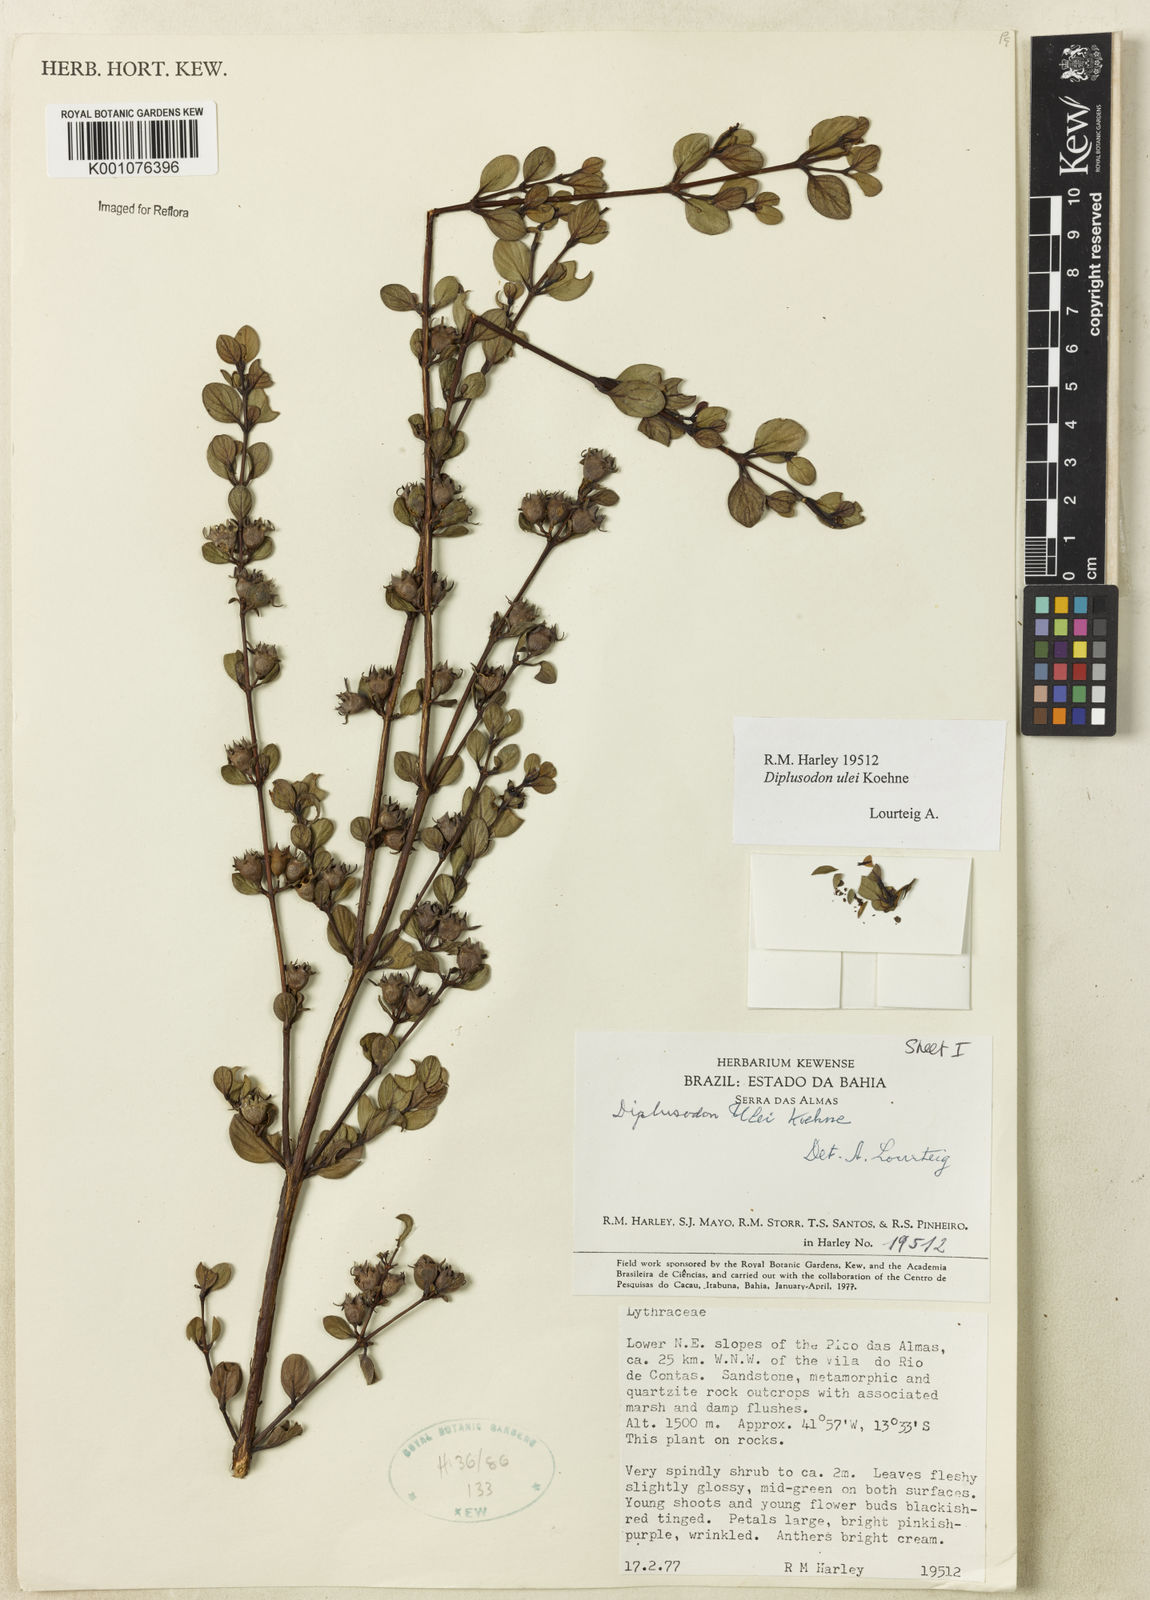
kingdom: Plantae
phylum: Tracheophyta
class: Magnoliopsida
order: Myrtales
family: Lythraceae
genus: Diplusodon
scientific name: Diplusodon ulei
